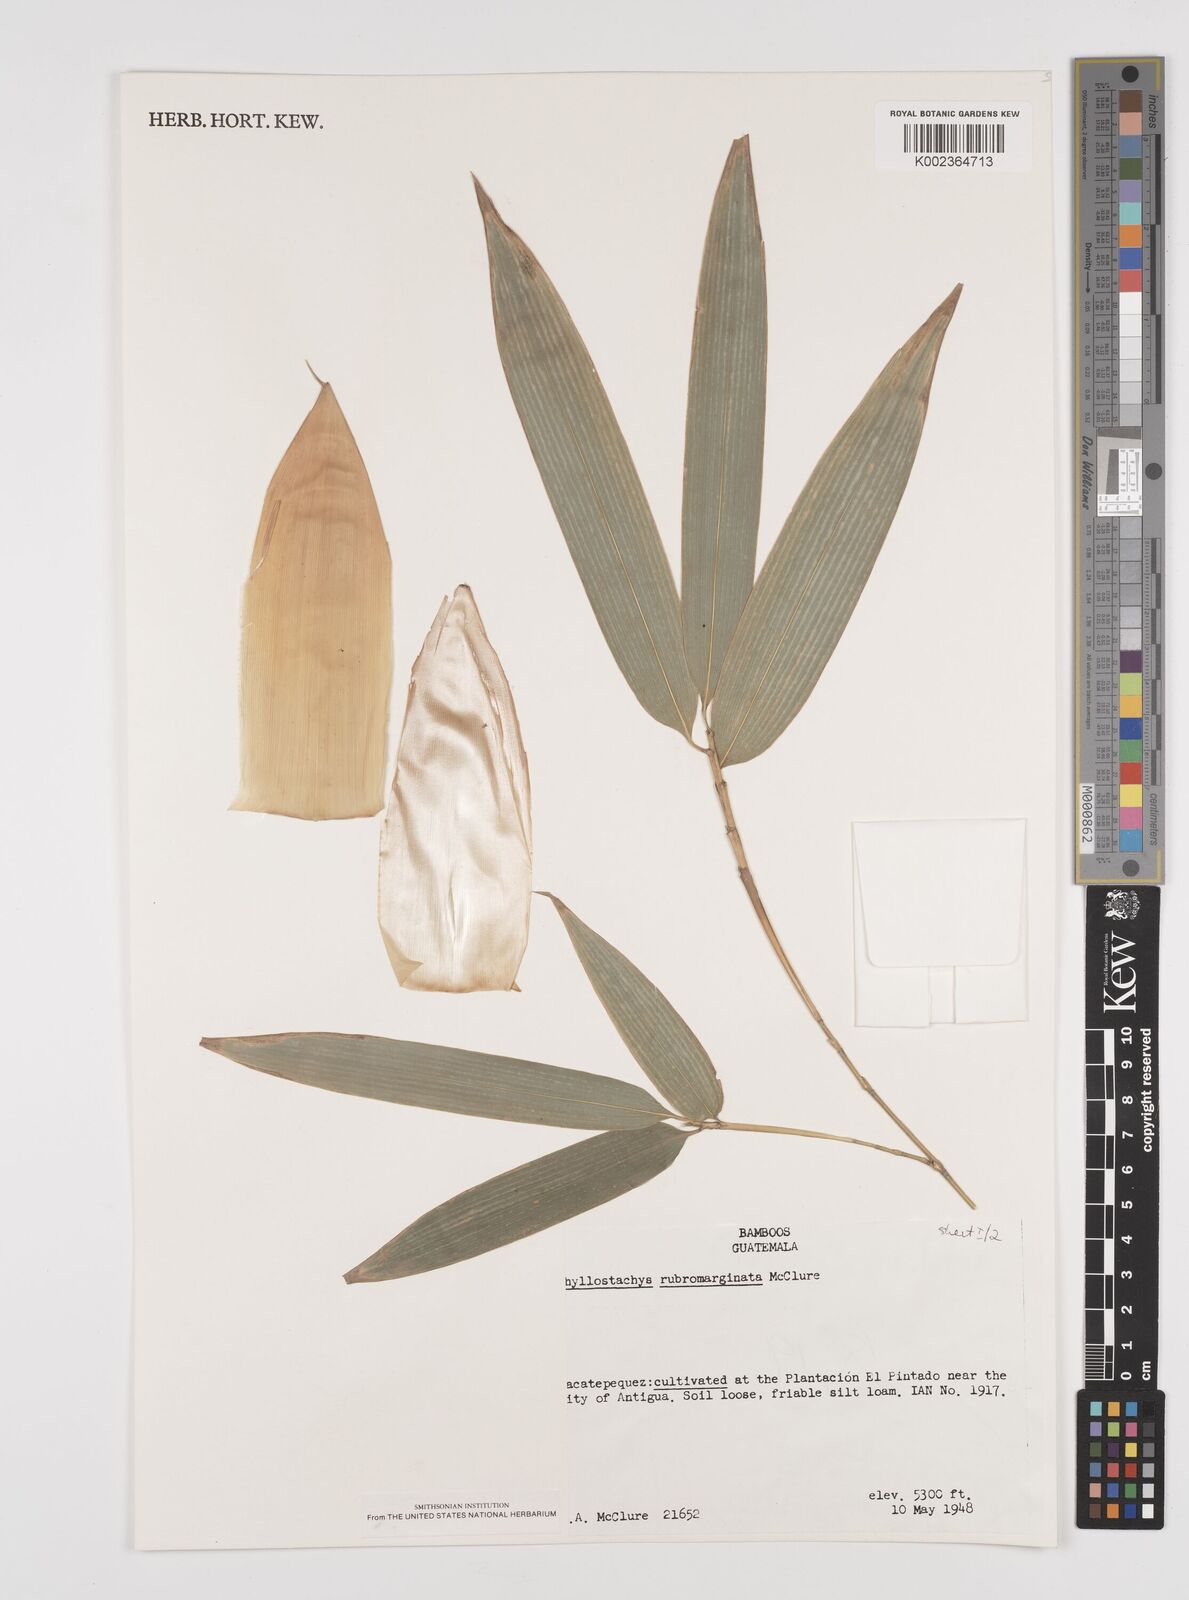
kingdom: Plantae
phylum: Tracheophyta
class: Liliopsida
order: Poales
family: Poaceae
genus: Phyllostachys
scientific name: Phyllostachys rubromarginata
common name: Reddish bamboo
